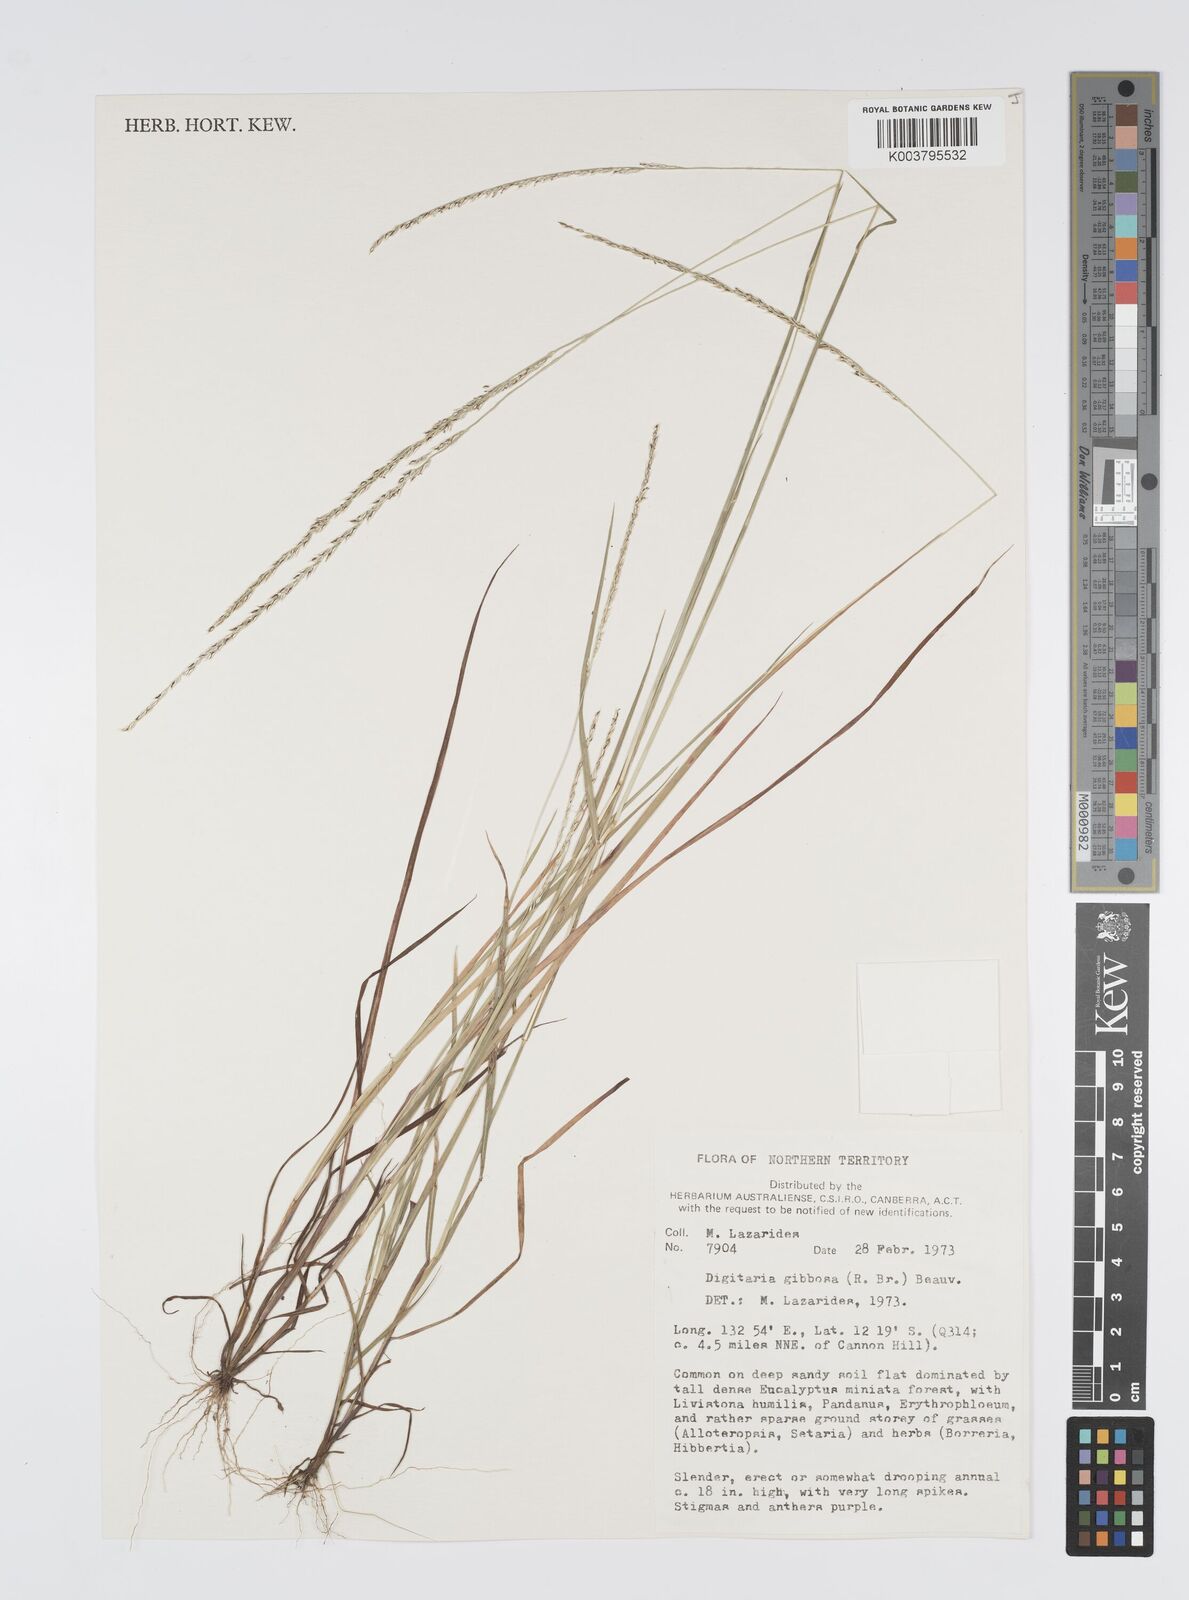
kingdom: Plantae
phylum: Tracheophyta
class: Liliopsida
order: Poales
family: Poaceae
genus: Digitaria
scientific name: Digitaria gibbosa
